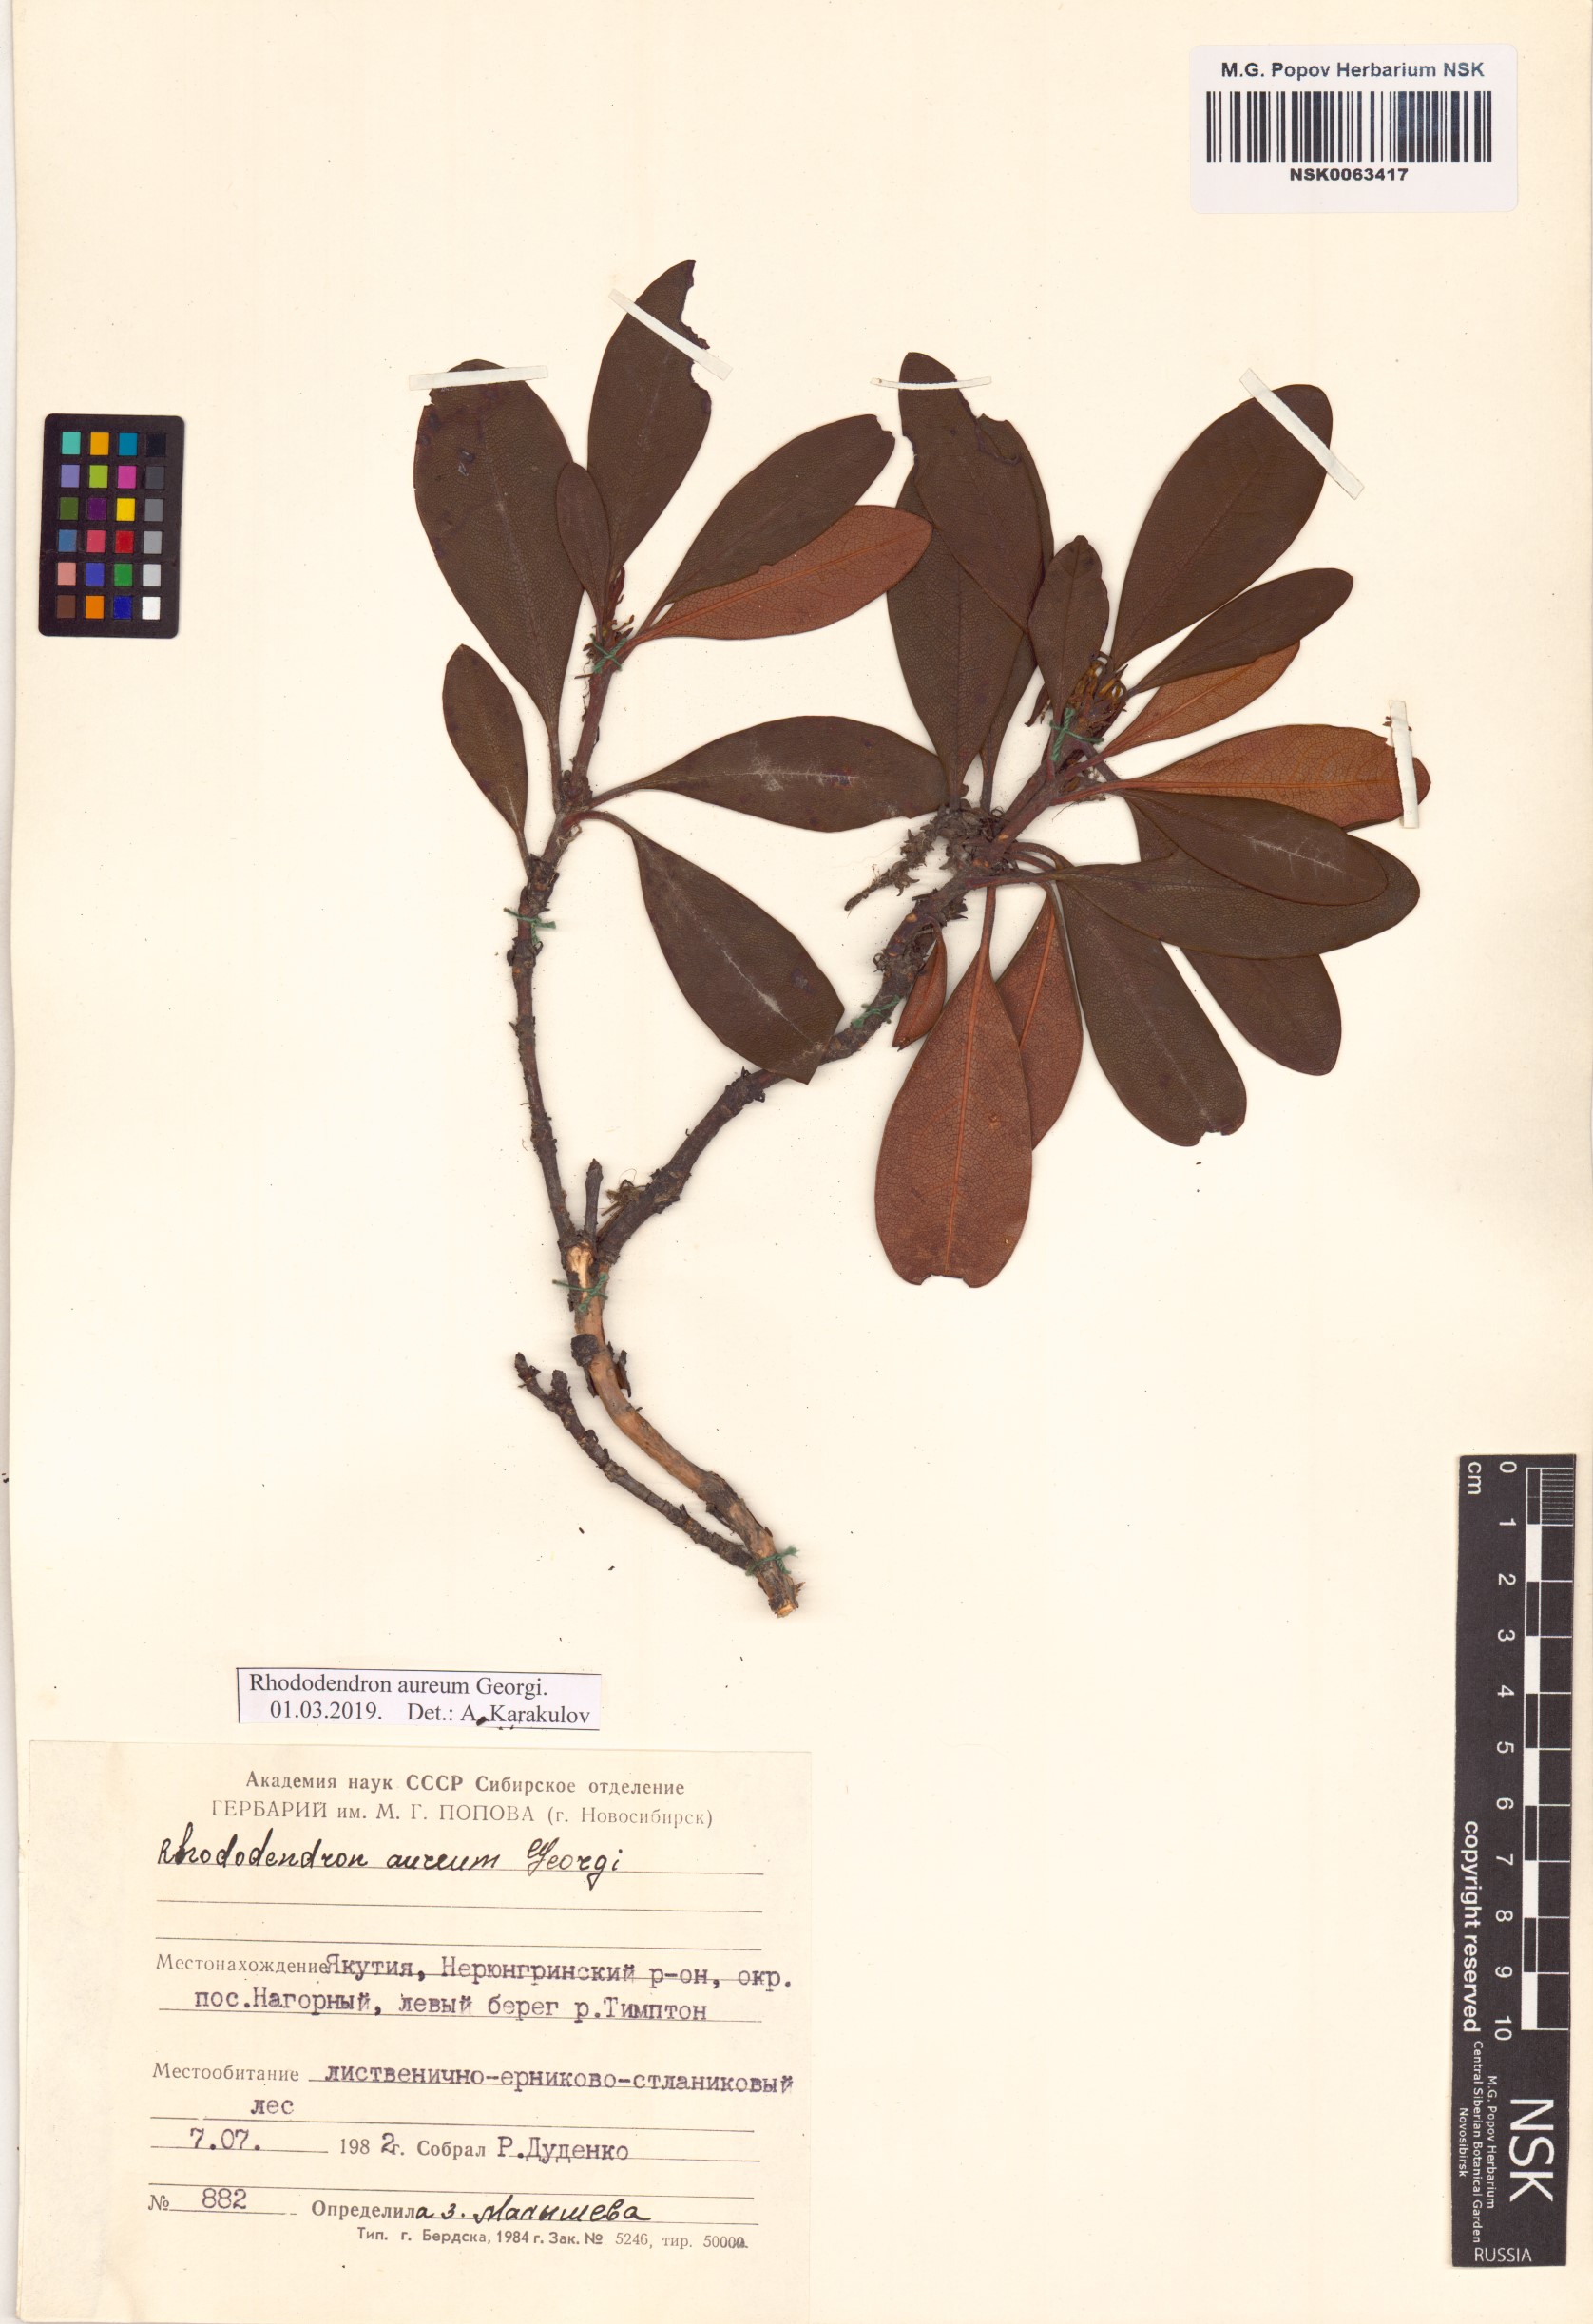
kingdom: Plantae
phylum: Tracheophyta
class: Magnoliopsida
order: Ericales
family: Ericaceae
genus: Rhododendron
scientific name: Rhododendron aureum
